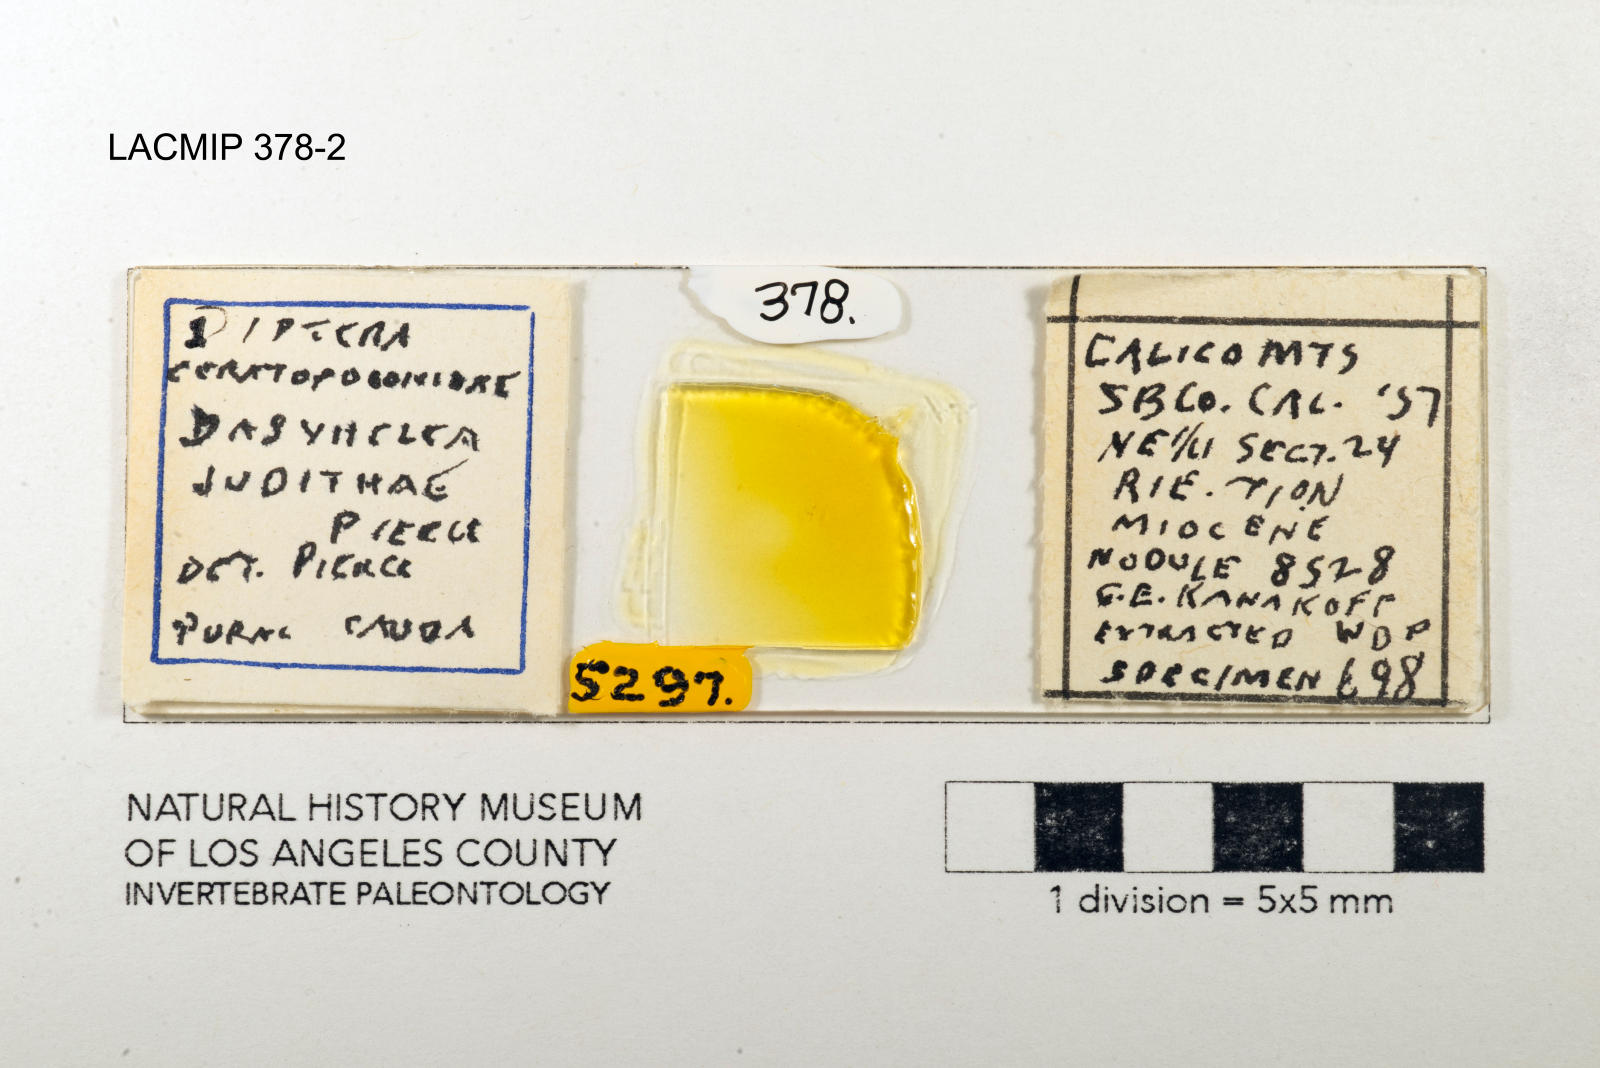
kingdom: Animalia
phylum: Arthropoda
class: Insecta
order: Diptera
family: Ceratopogonidae
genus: Dasyhelea
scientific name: Dasyhelea judithae
